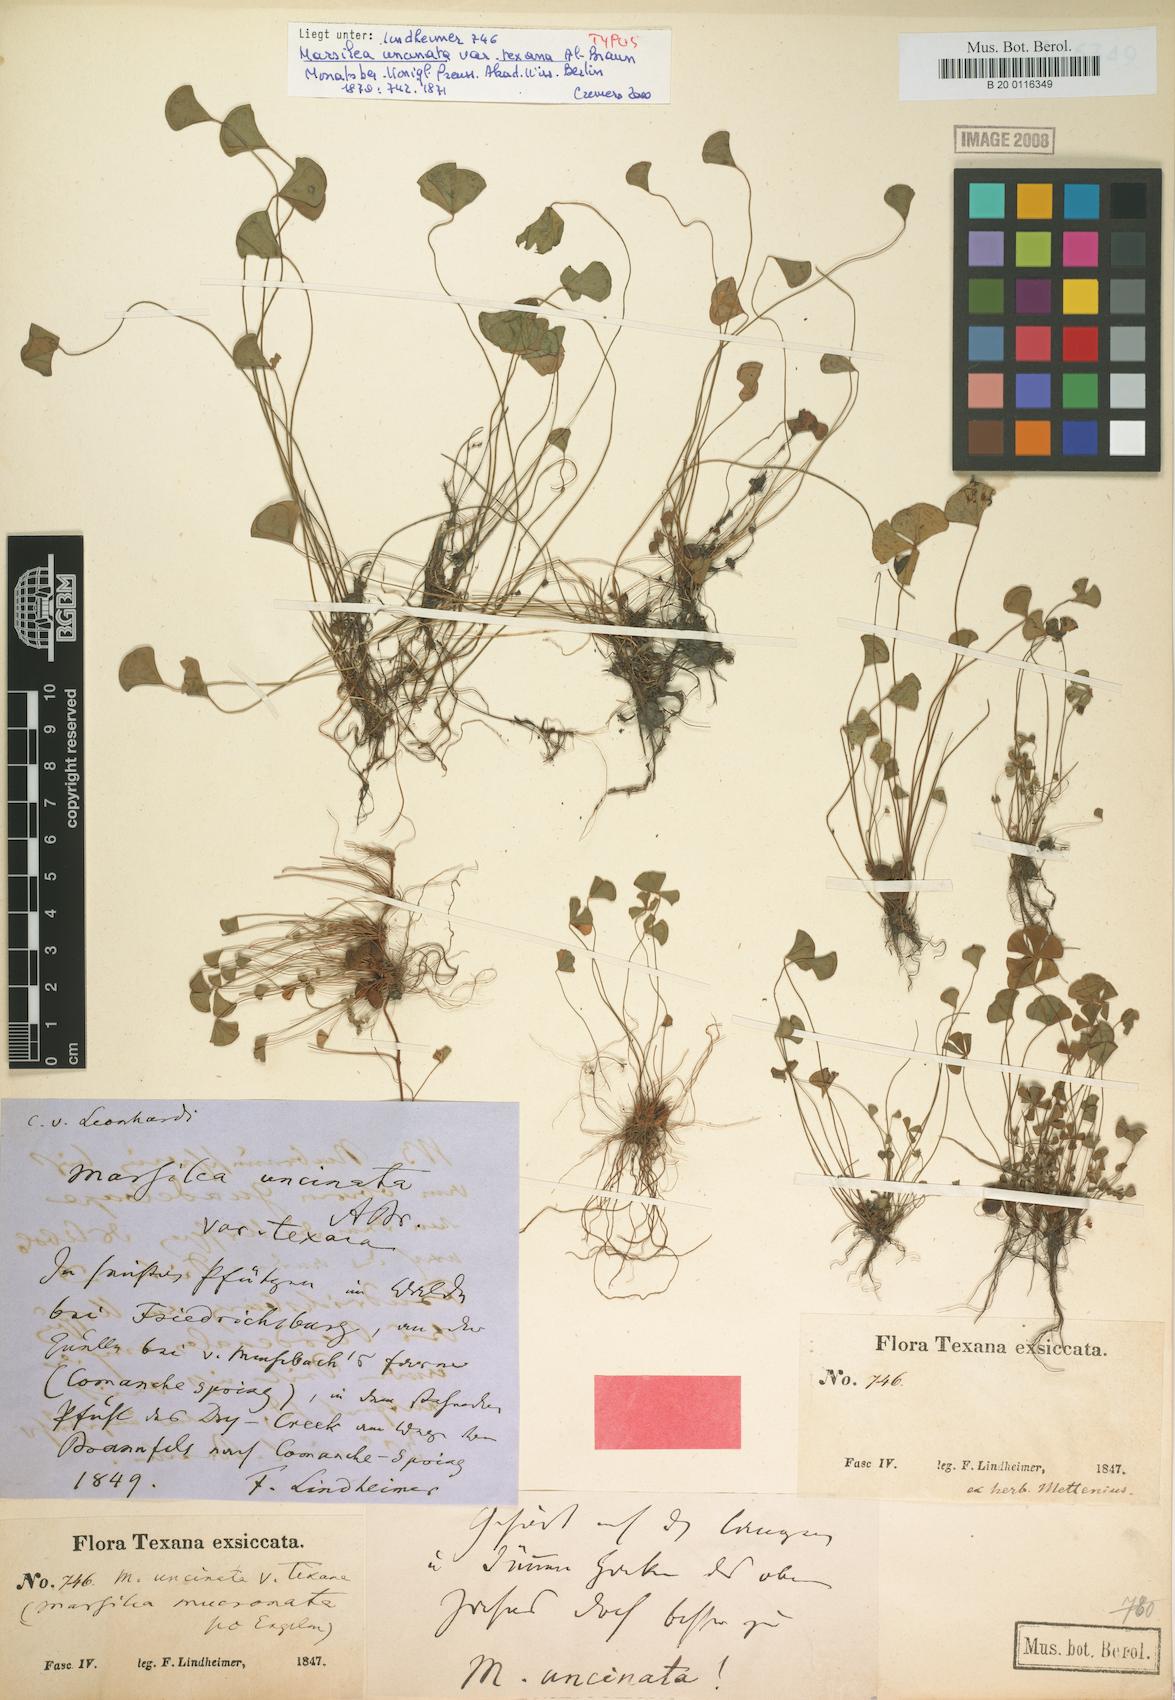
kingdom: Plantae
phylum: Tracheophyta
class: Polypodiopsida
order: Salviniales
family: Marsileaceae
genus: Marsilea
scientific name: Marsilea vestita
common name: Hooked-pepperwort
